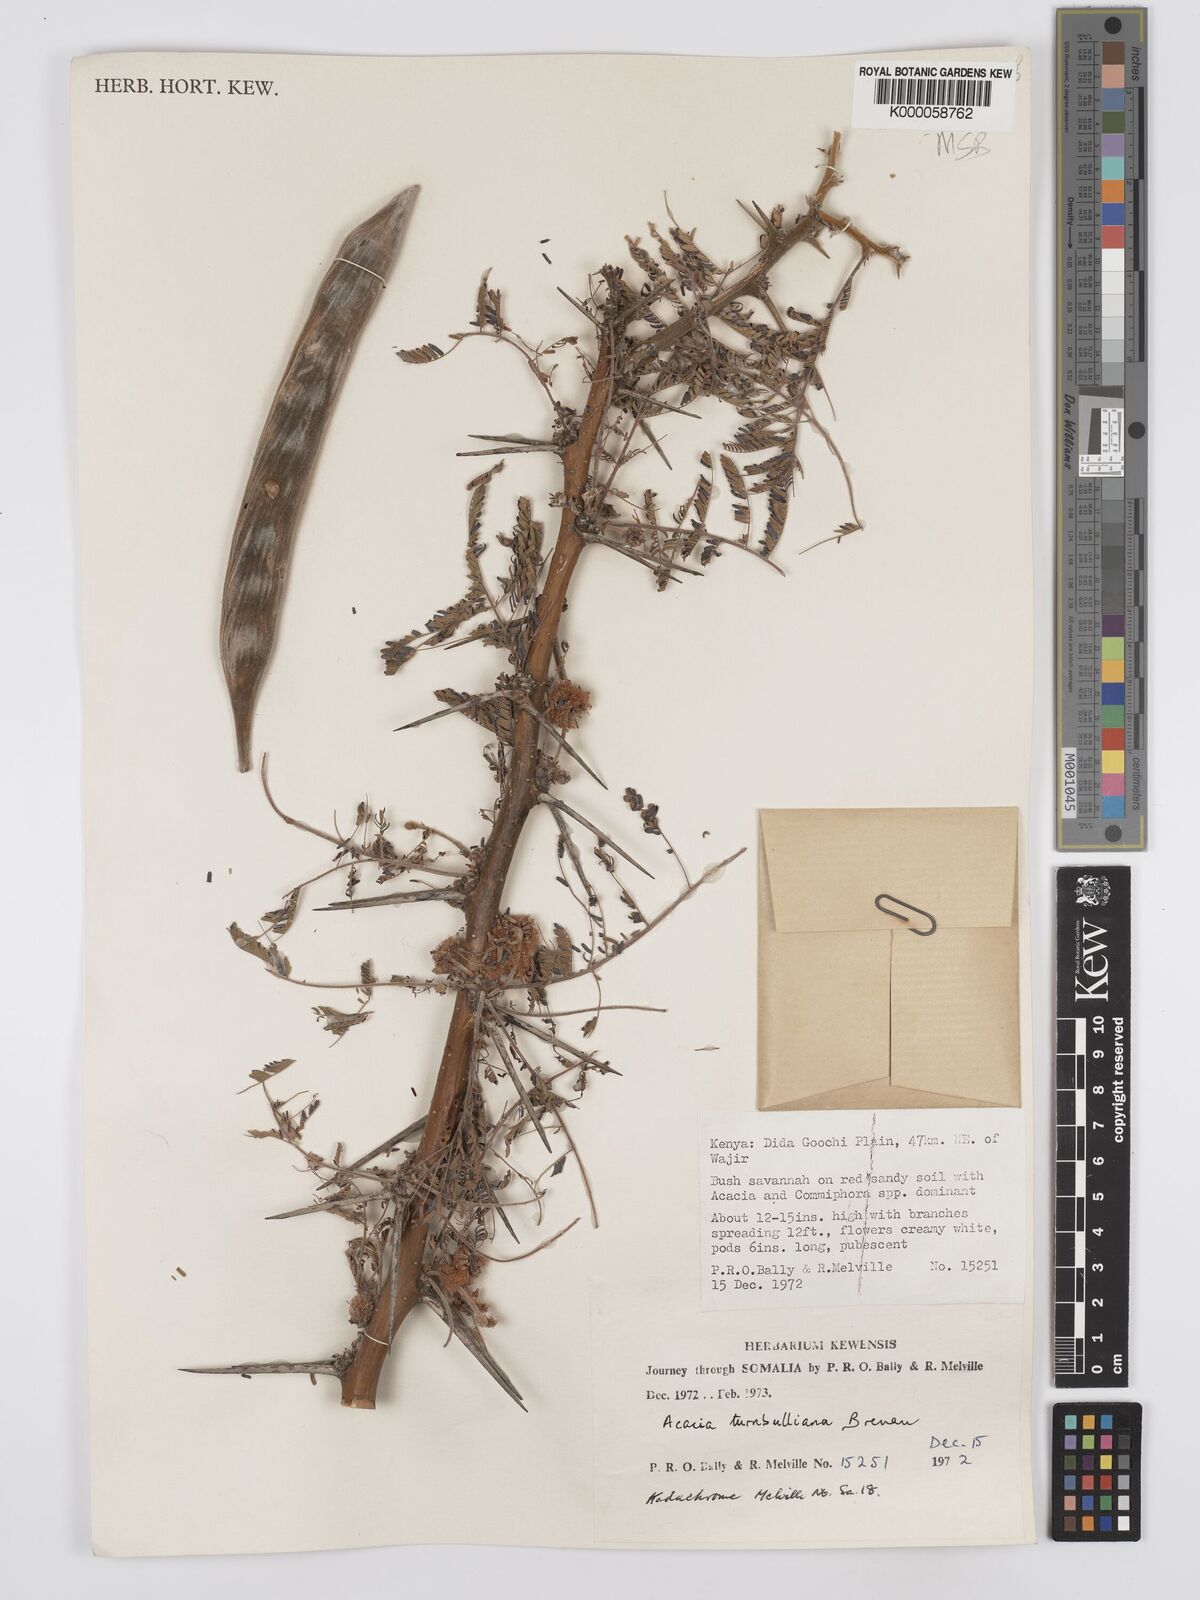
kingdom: Plantae
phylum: Tracheophyta
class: Magnoliopsida
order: Fabales
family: Fabaceae
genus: Vachellia
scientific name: Vachellia edgeworthii
